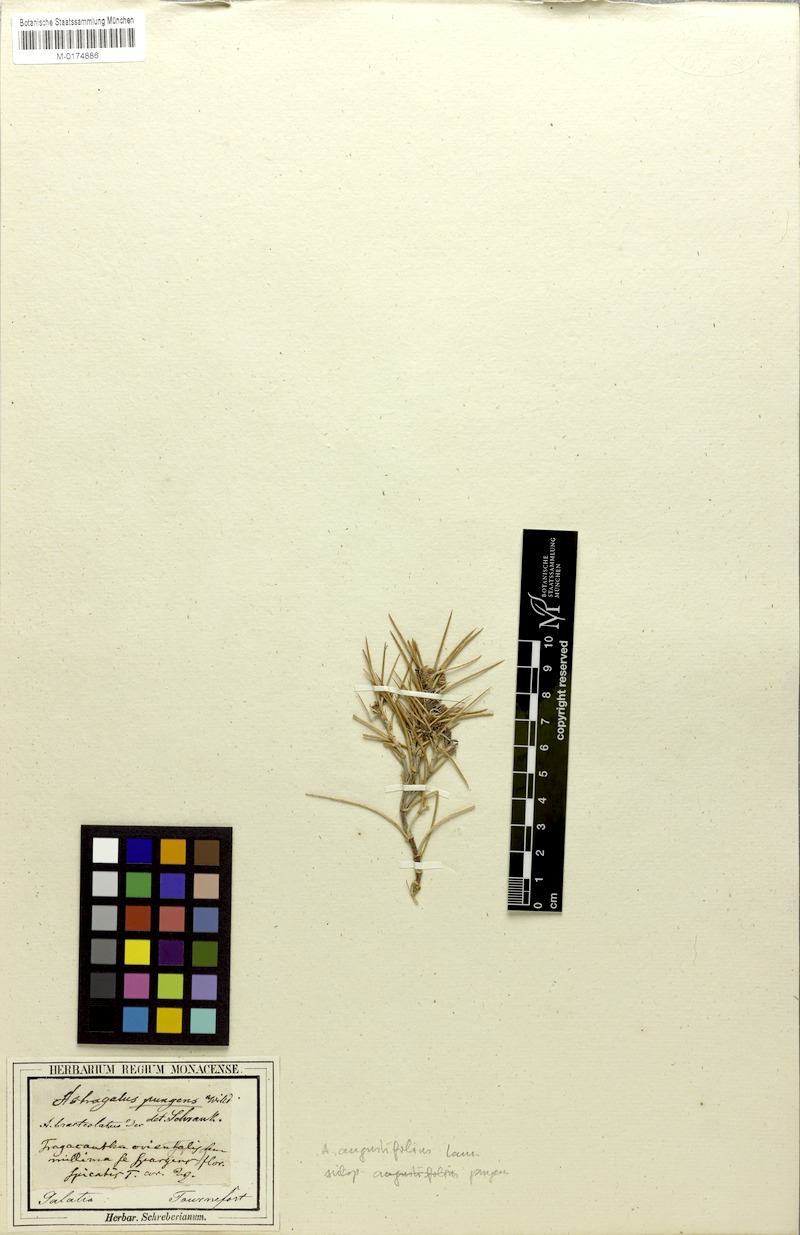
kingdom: Plantae
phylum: Tracheophyta
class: Magnoliopsida
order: Fabales
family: Fabaceae
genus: Astragalus
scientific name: Astragalus pungens
